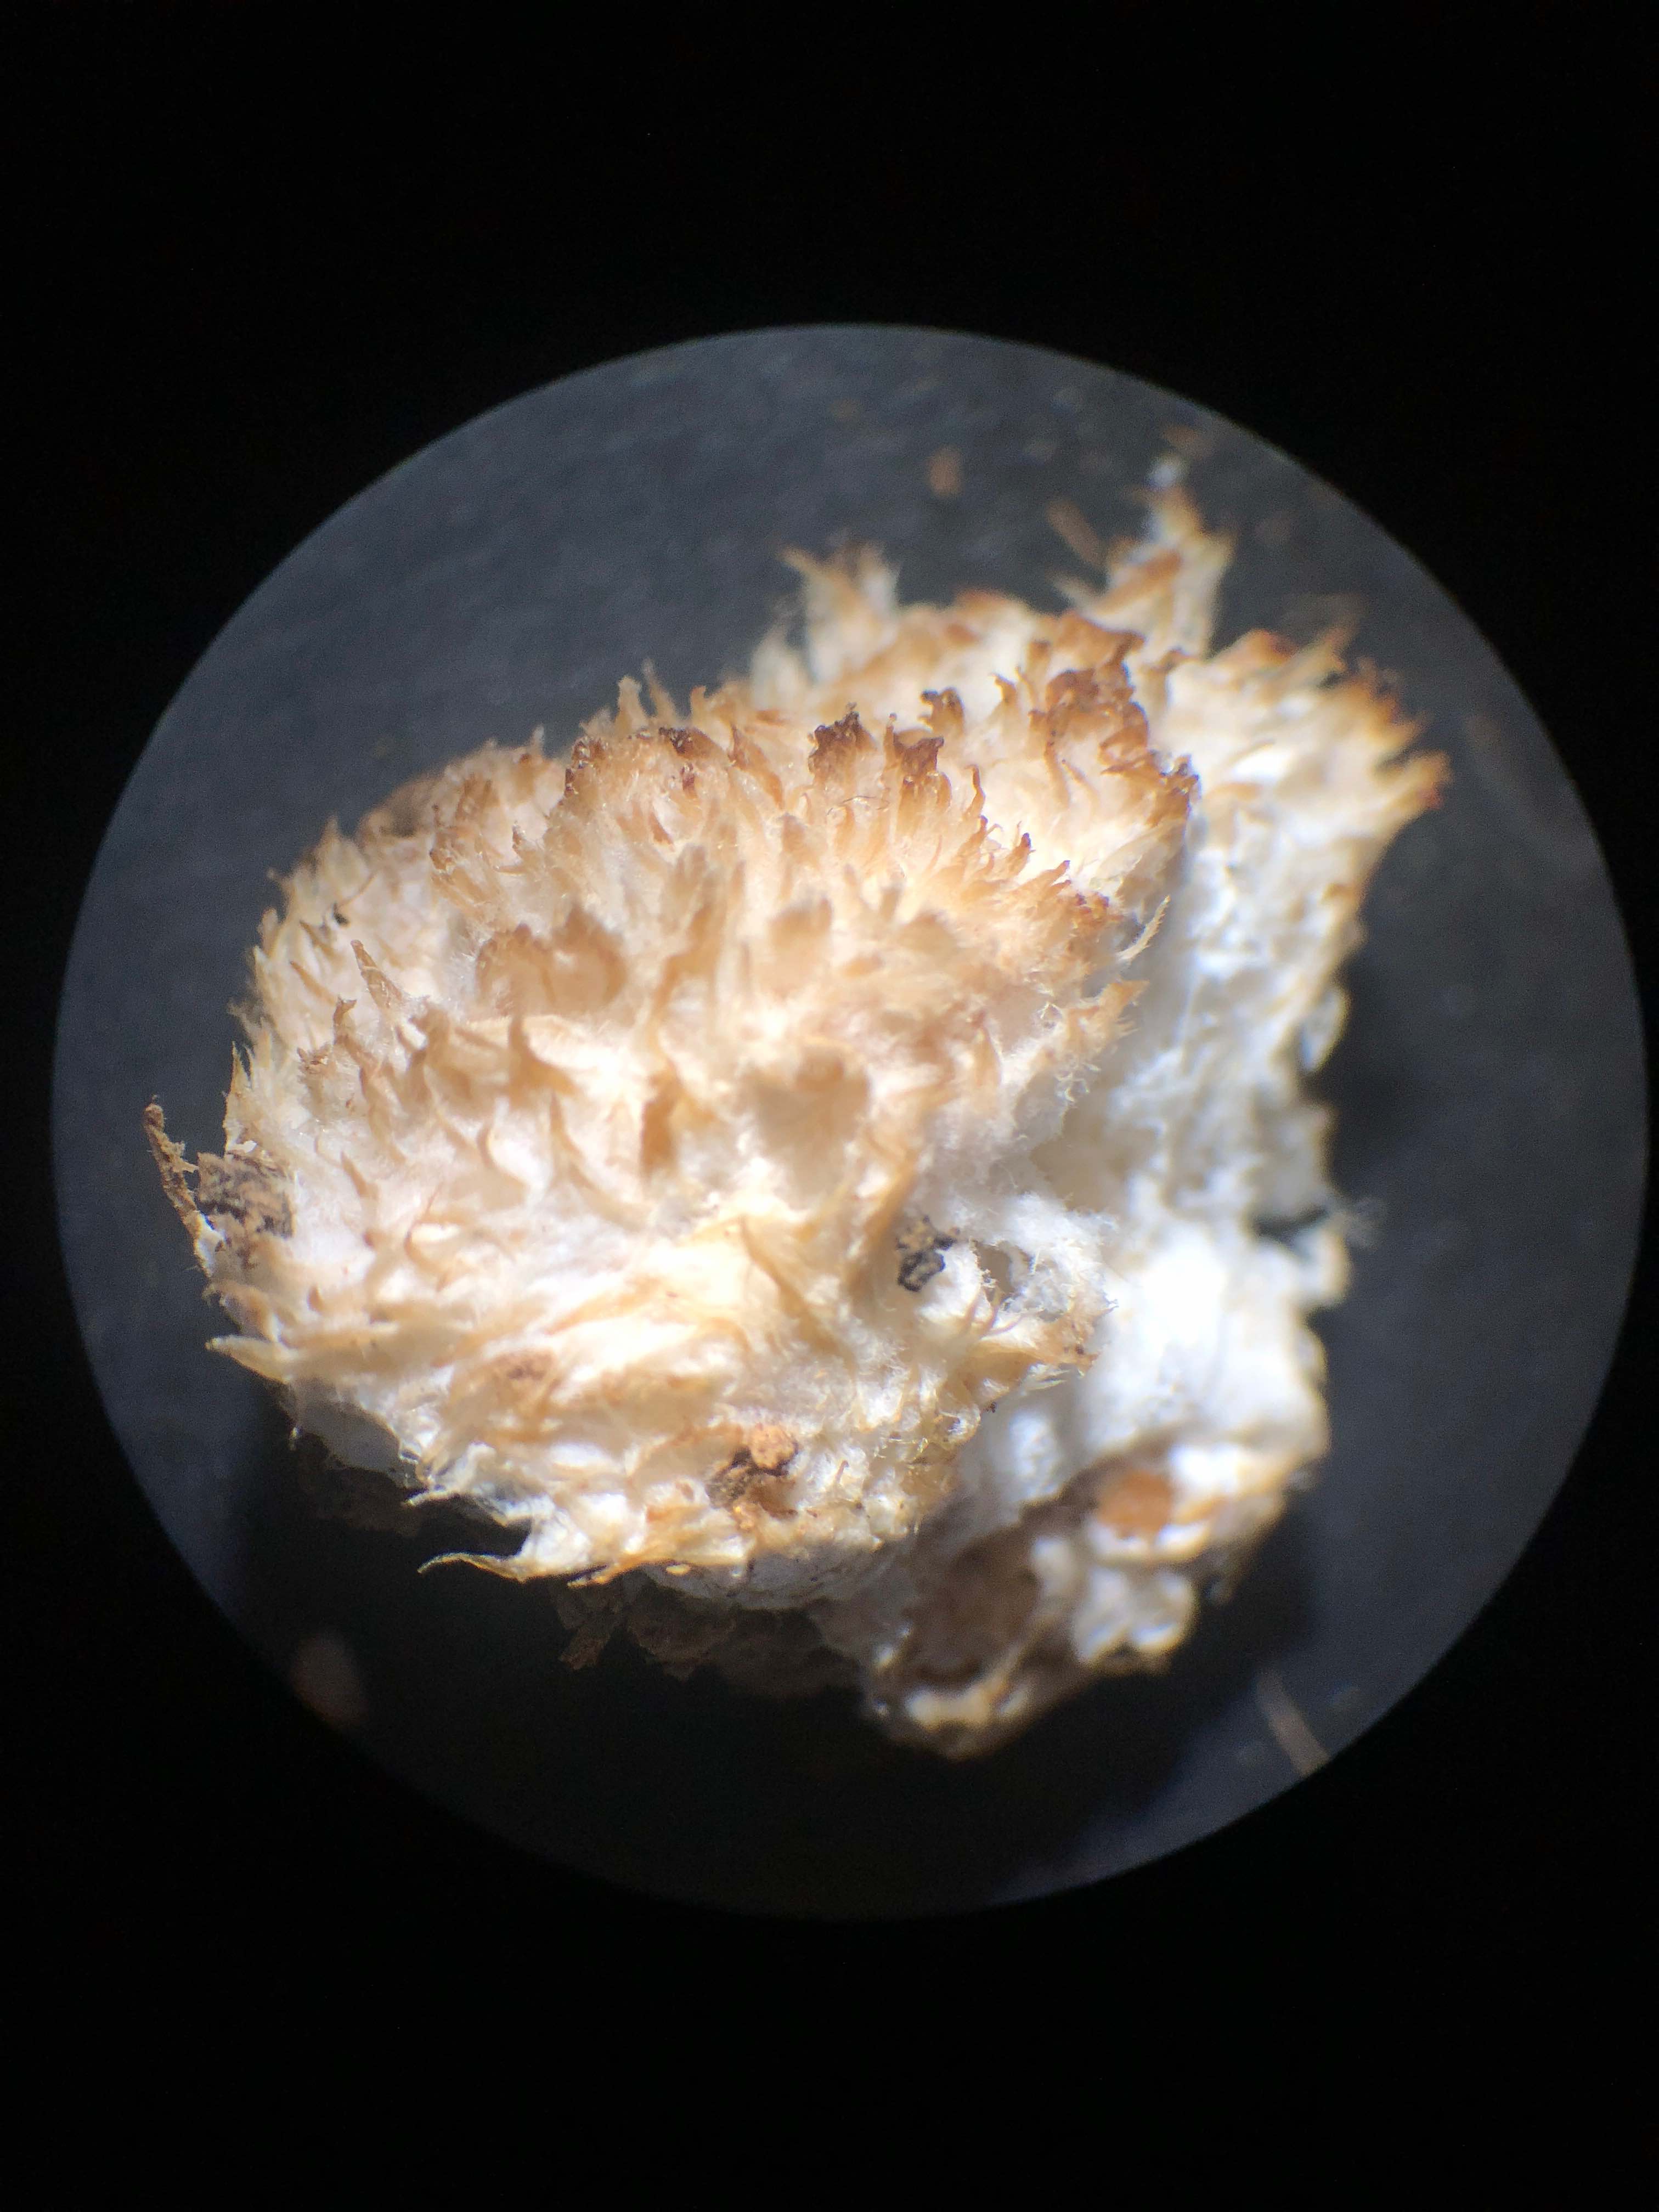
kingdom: Fungi
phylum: Basidiomycota
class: Agaricomycetes
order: Polyporales
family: Dacryobolaceae
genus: Postia
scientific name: Postia ptychogaster
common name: støvende kødporesvamp
